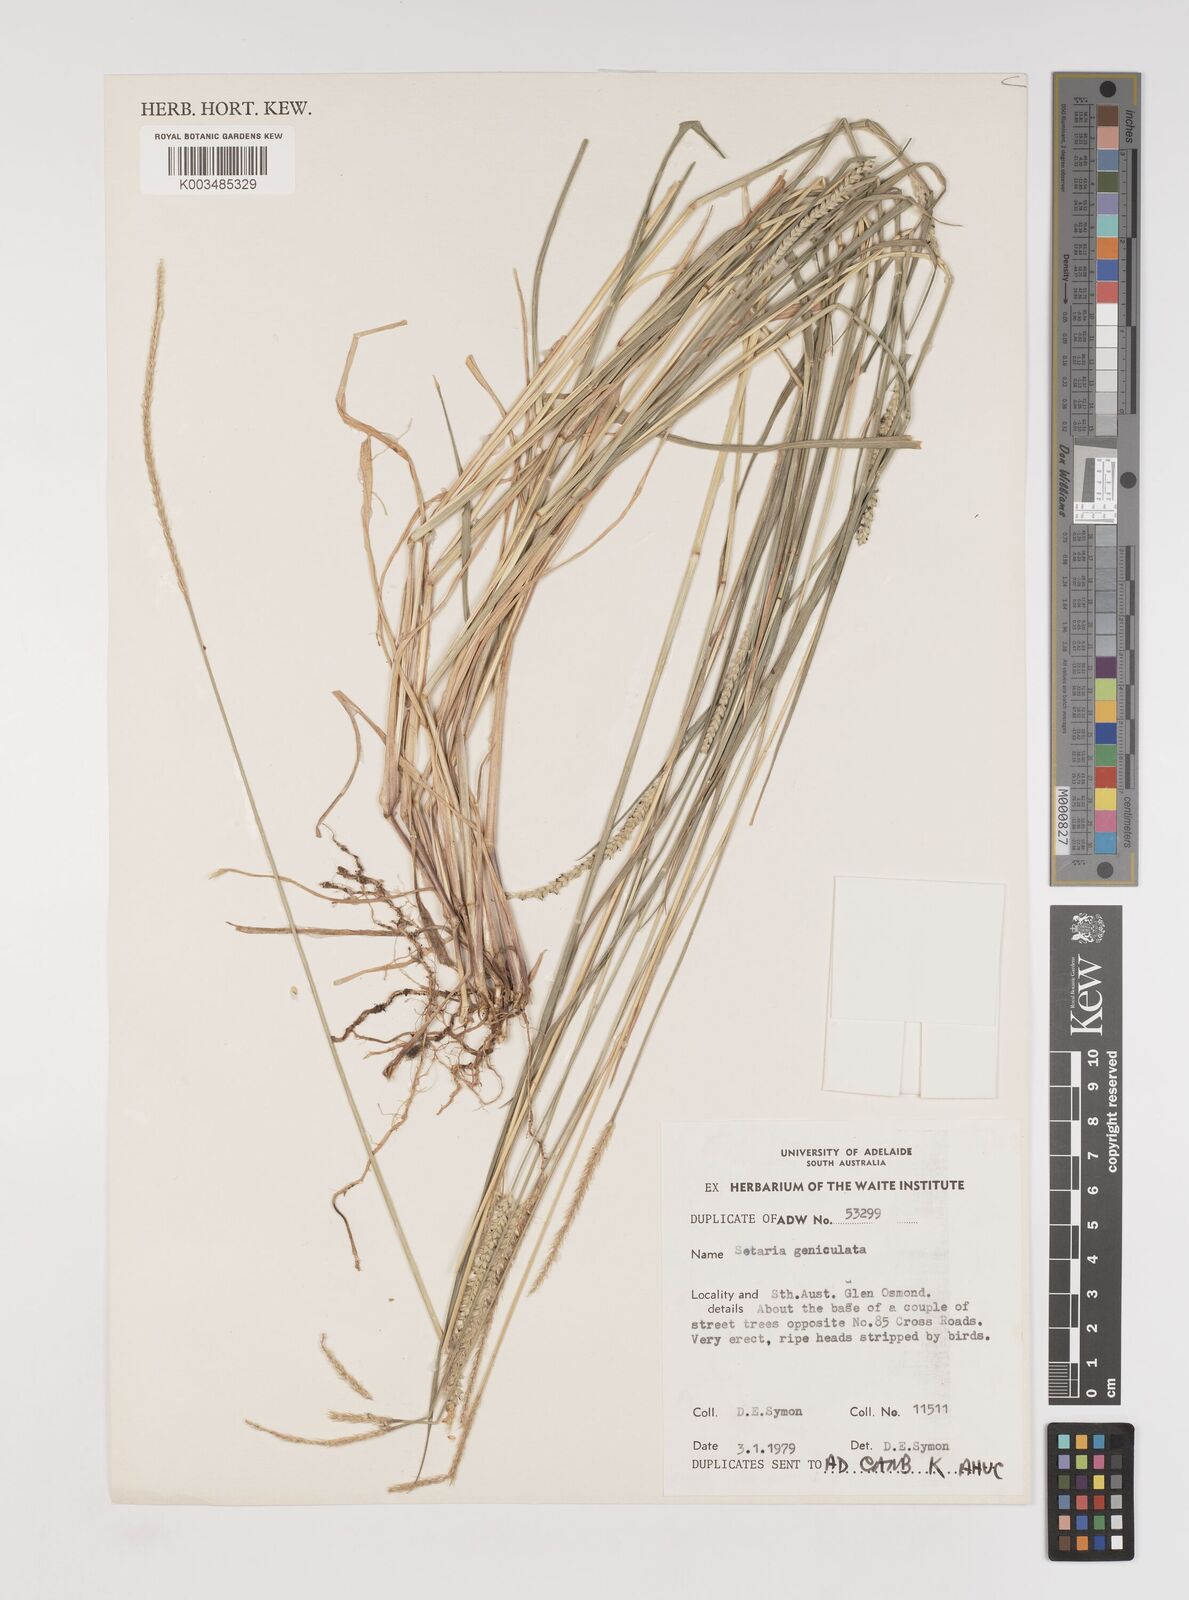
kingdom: Plantae
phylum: Tracheophyta
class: Liliopsida
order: Poales
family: Poaceae
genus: Setaria
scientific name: Setaria parviflora
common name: Knotroot bristle-grass
